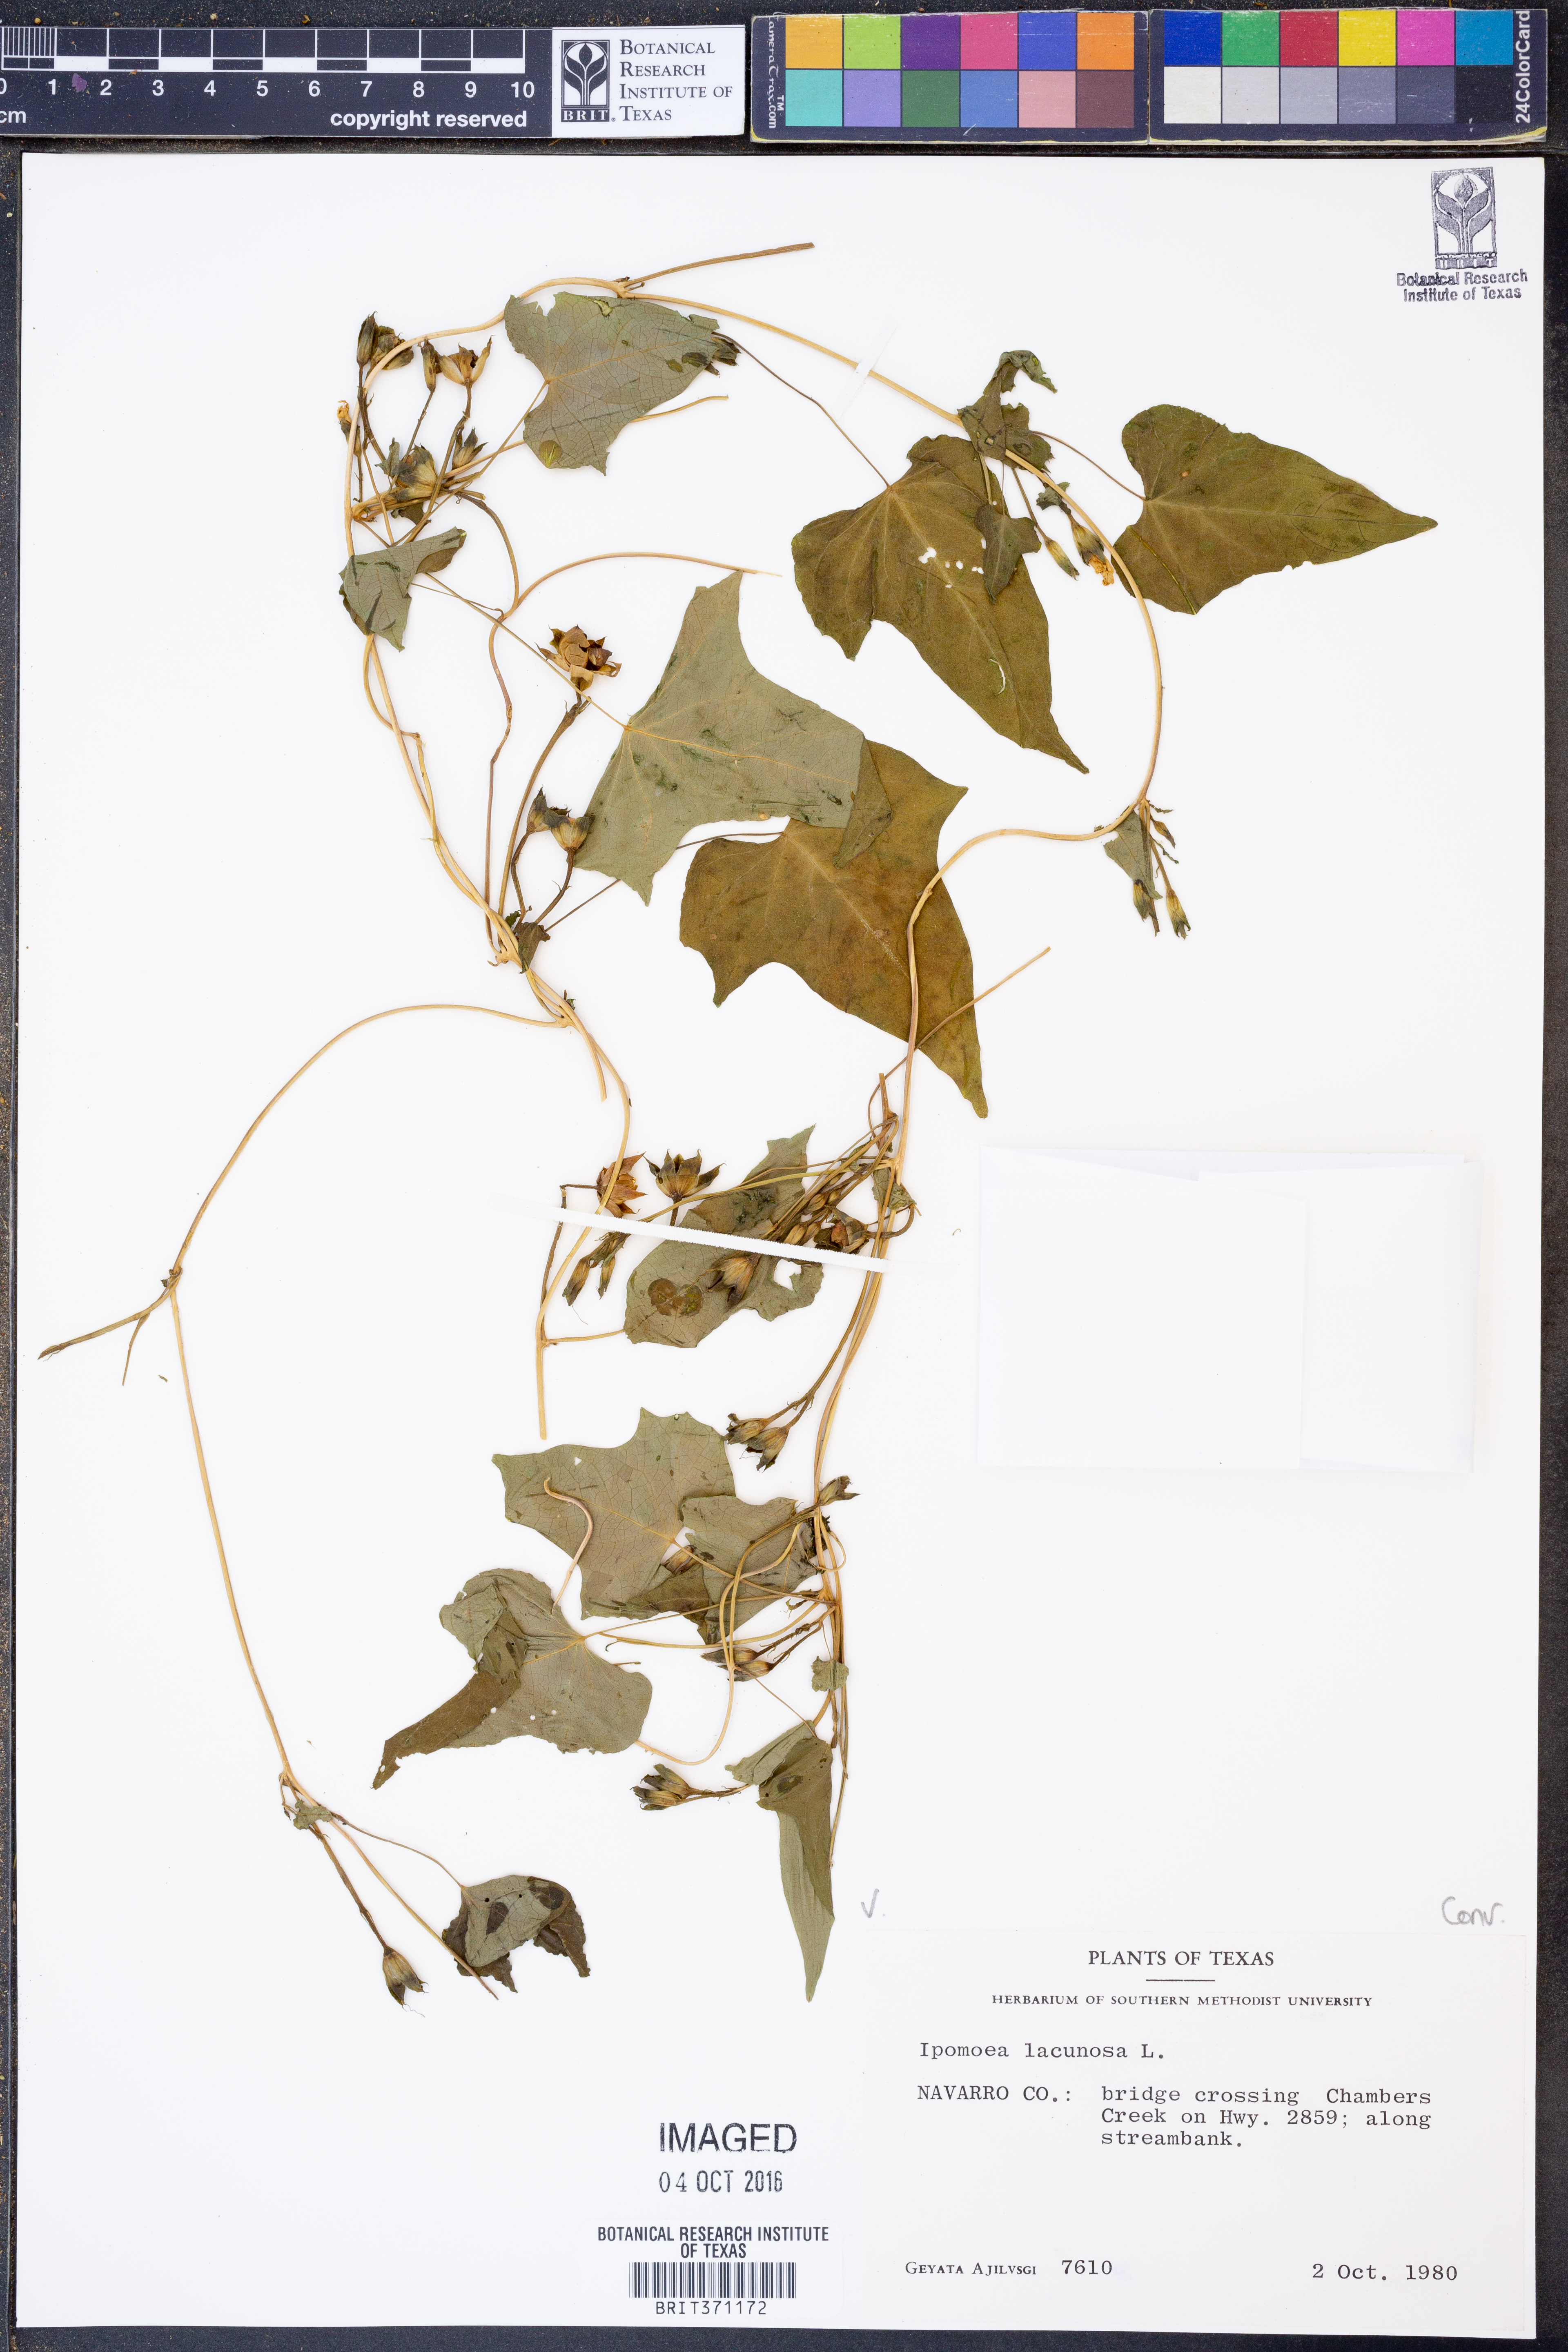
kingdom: Plantae
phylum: Tracheophyta
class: Magnoliopsida
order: Solanales
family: Convolvulaceae
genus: Ipomoea
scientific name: Ipomoea lacunosa
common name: White morning-glory
